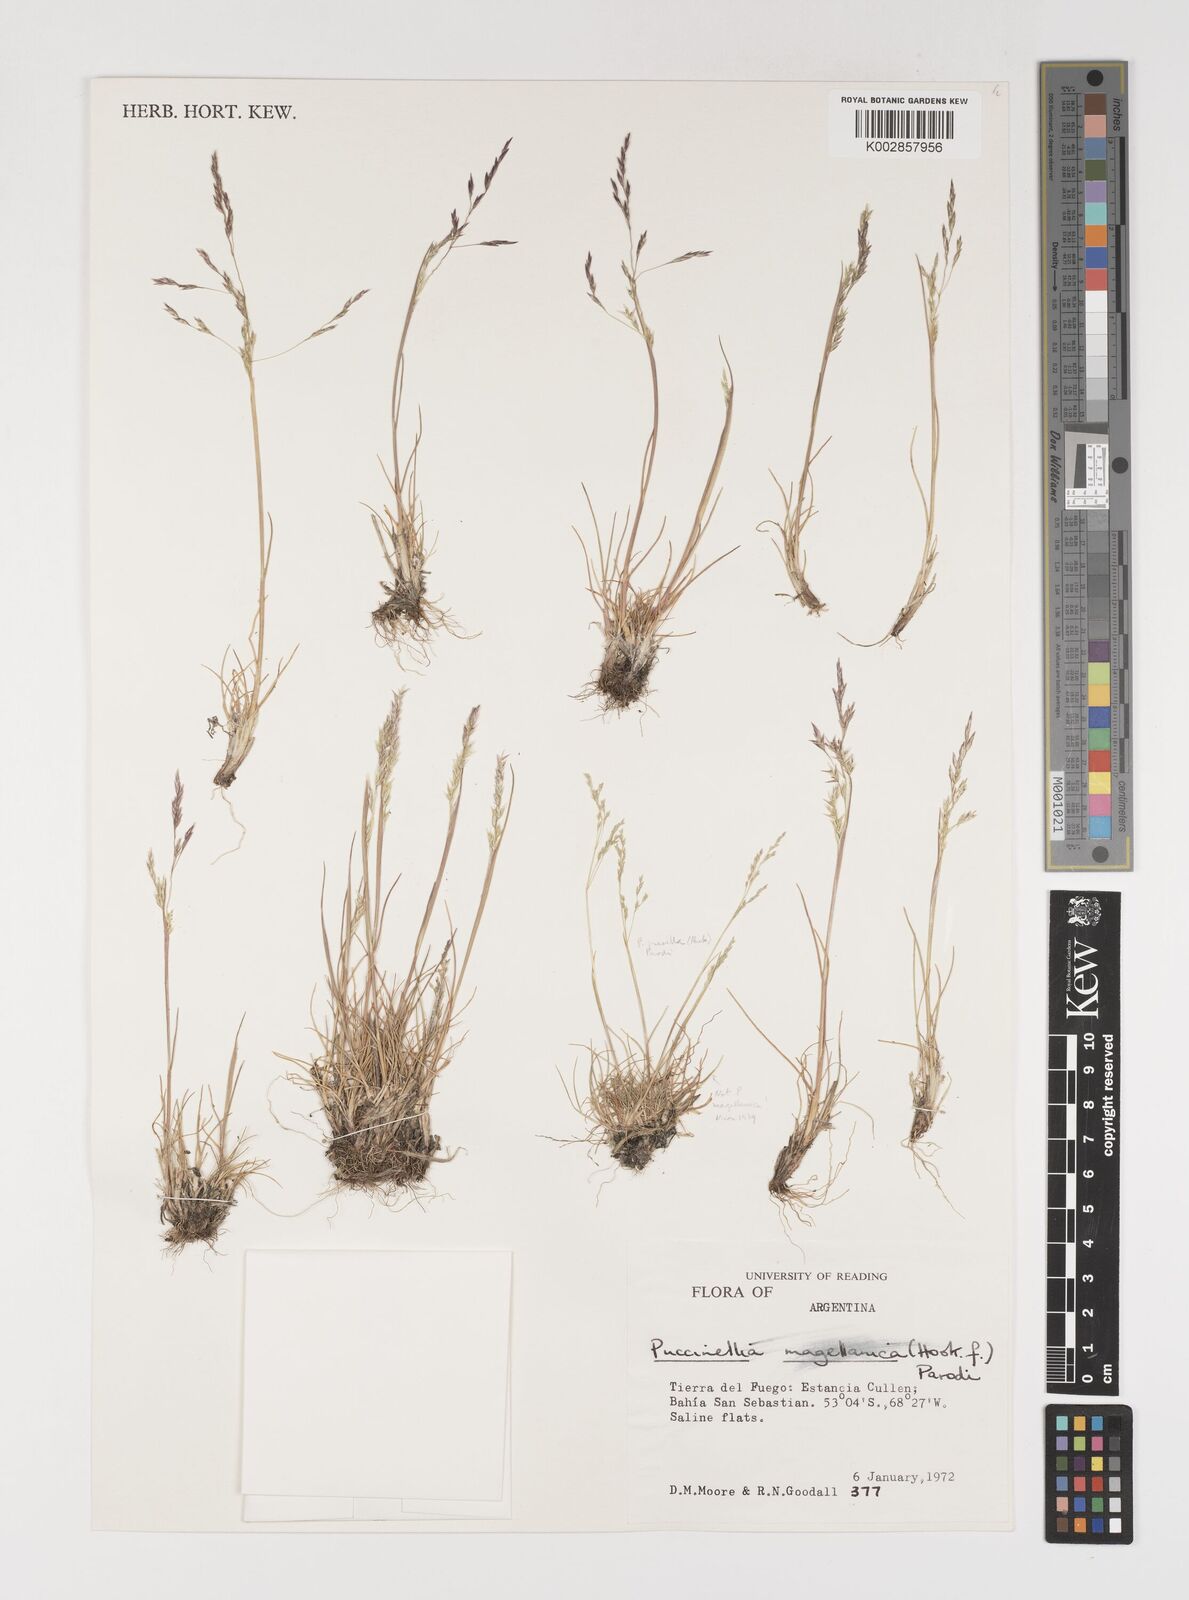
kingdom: Plantae
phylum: Tracheophyta
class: Liliopsida
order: Poales
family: Poaceae
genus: Puccinellia
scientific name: Puccinellia magellanica
